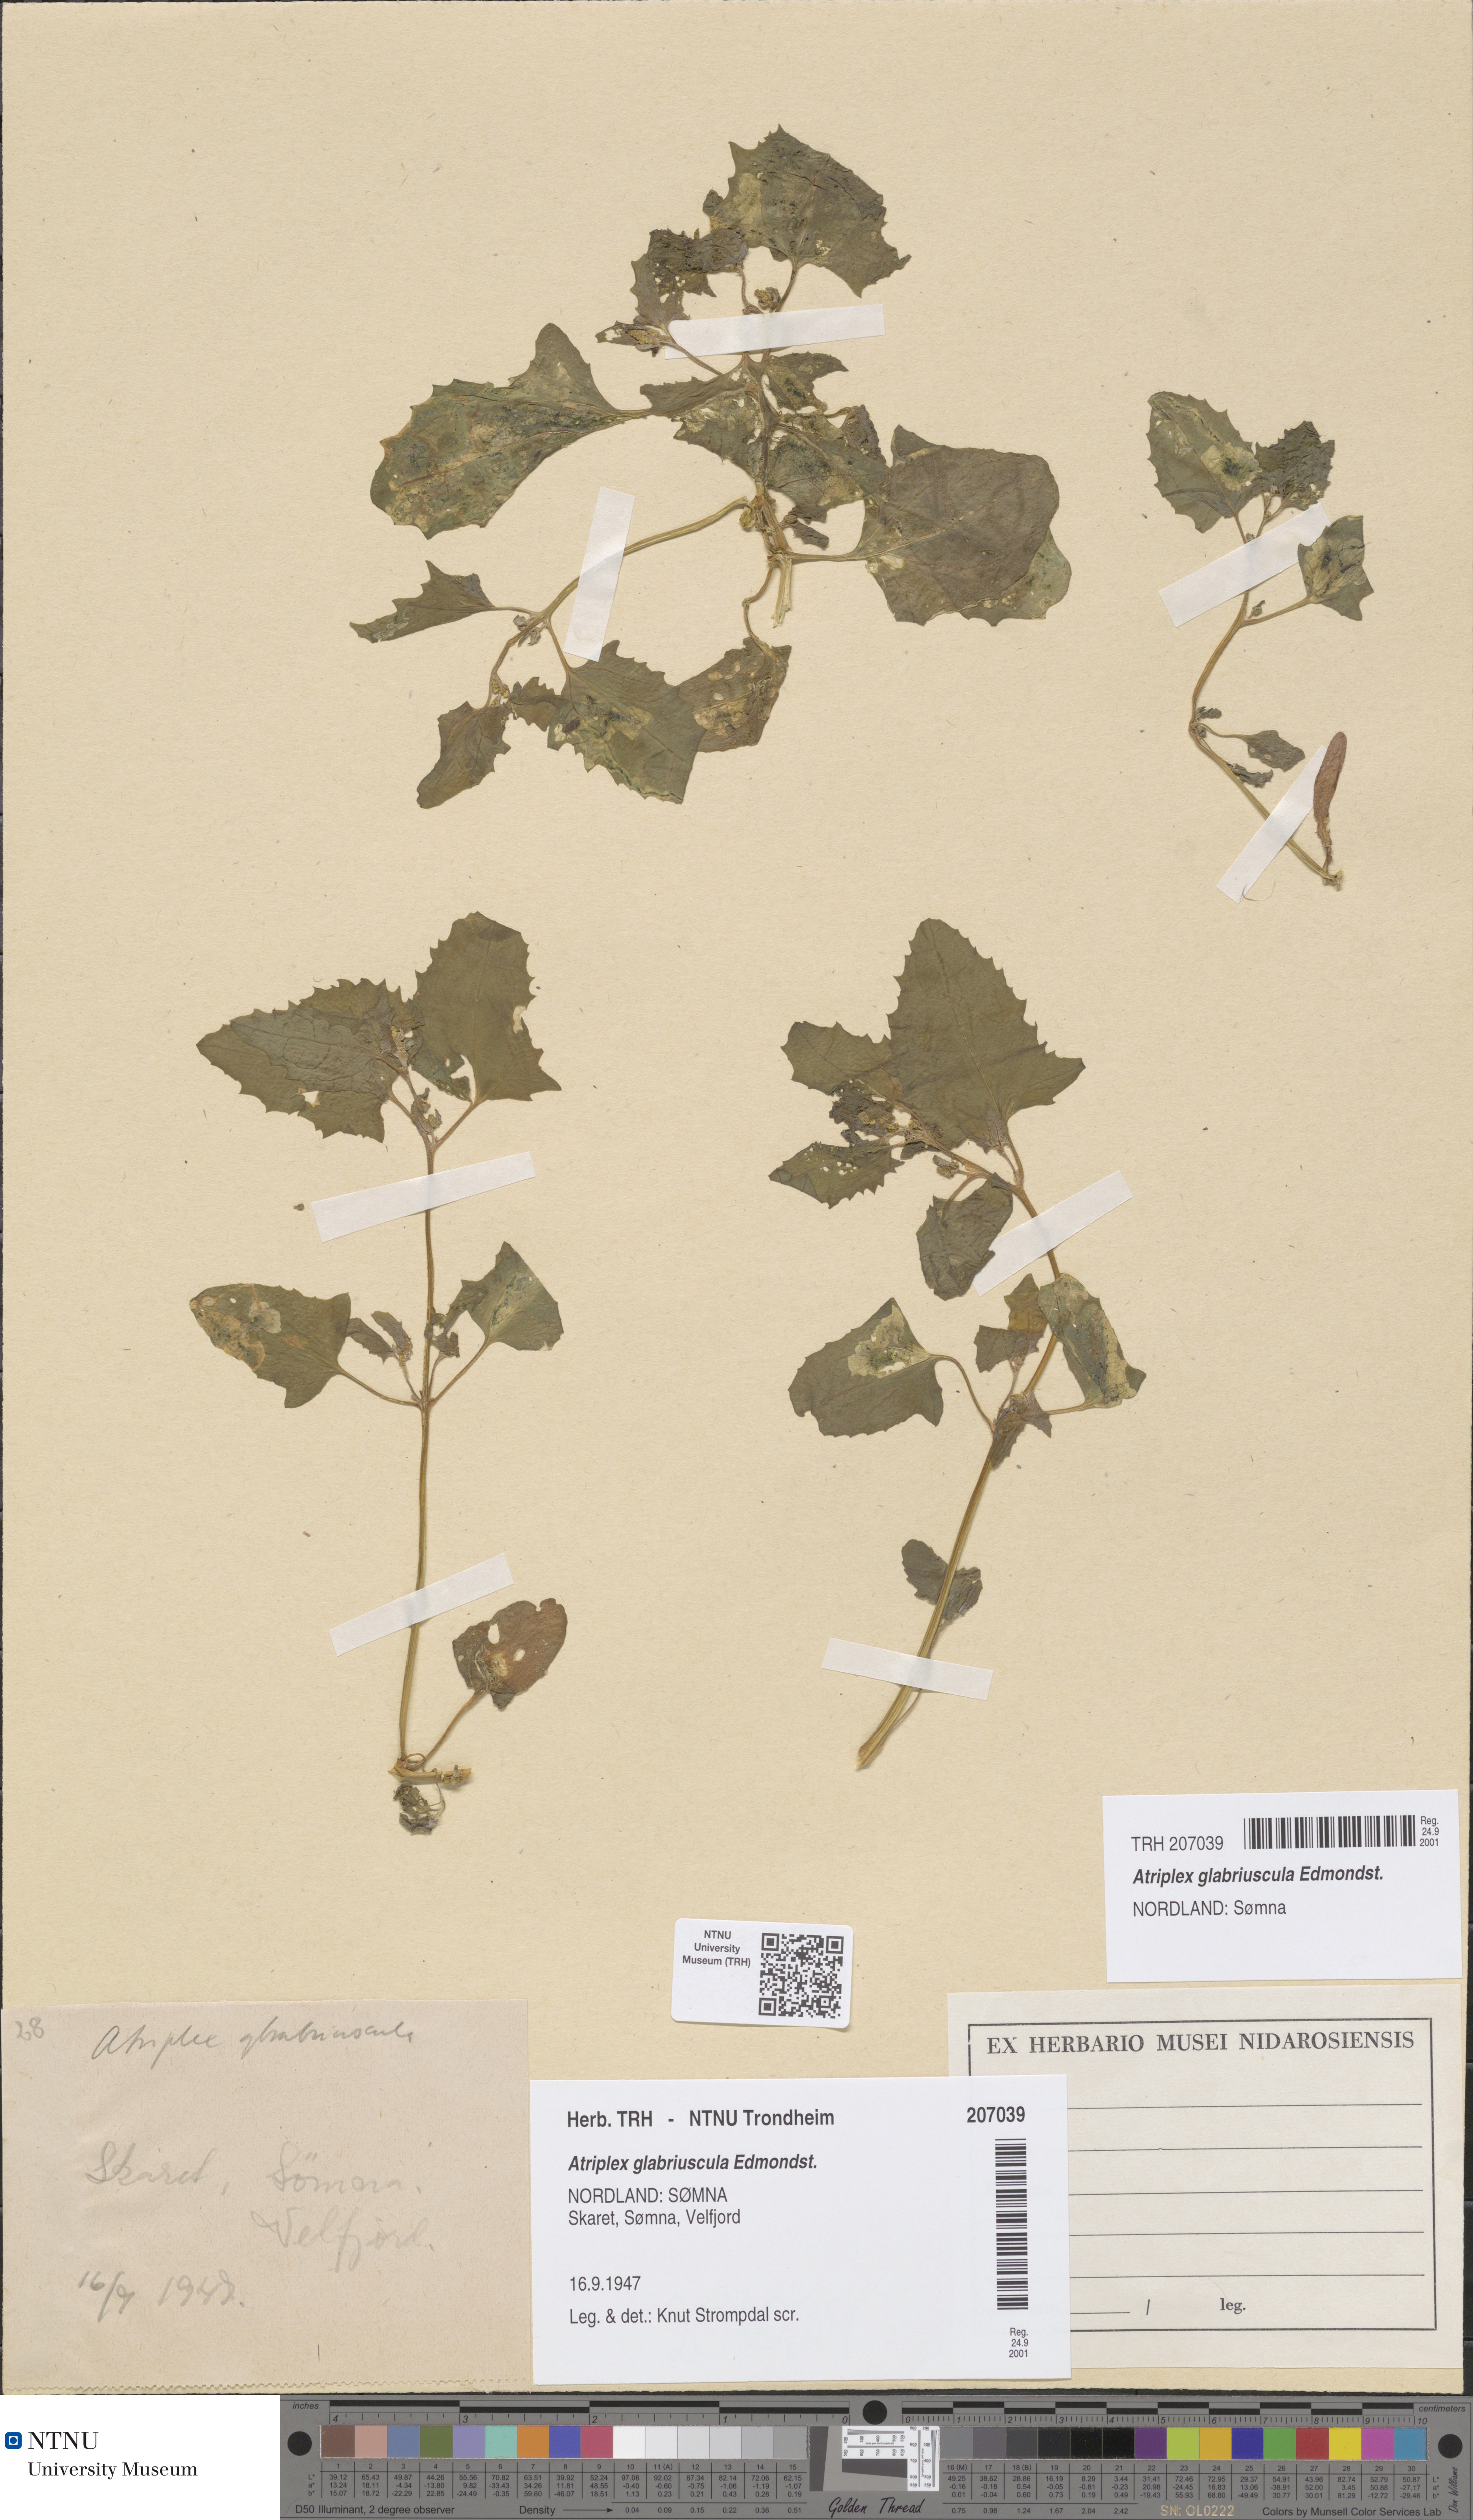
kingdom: Plantae
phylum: Tracheophyta
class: Magnoliopsida
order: Caryophyllales
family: Amaranthaceae
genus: Atriplex
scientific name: Atriplex glabriuscula
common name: Babington's orache
